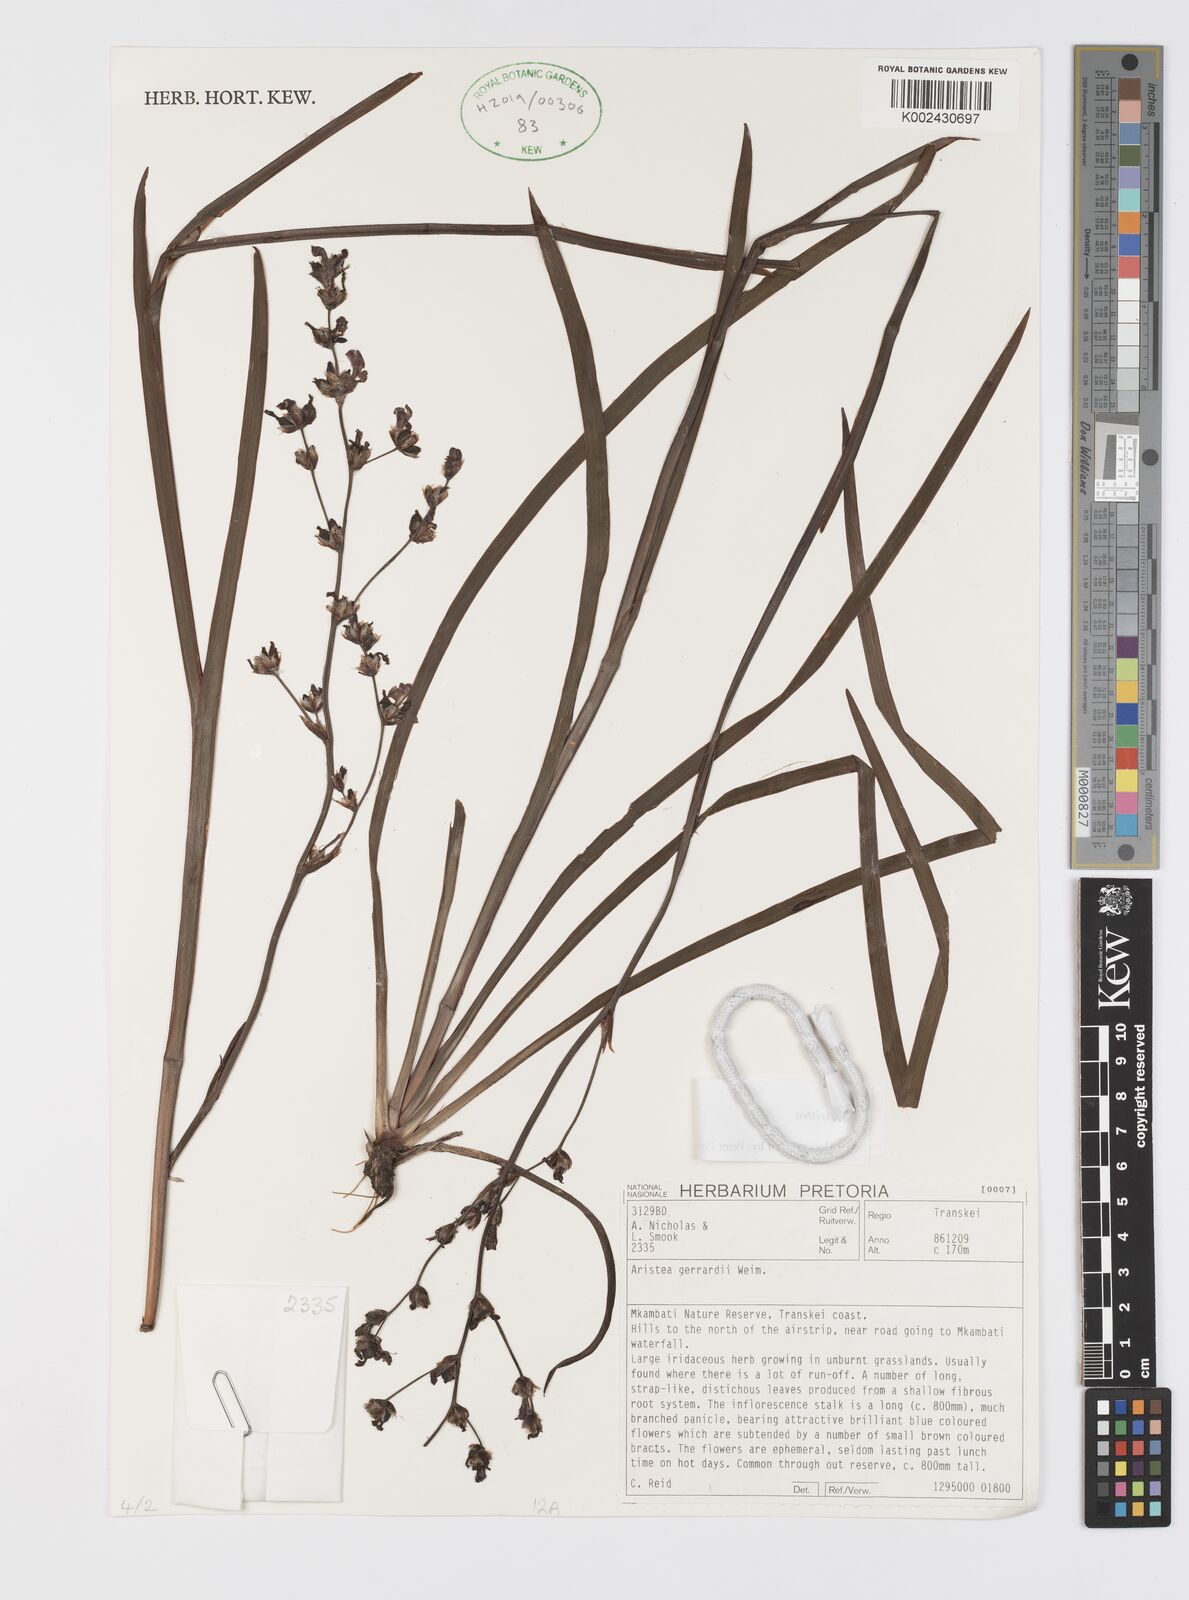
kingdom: Plantae
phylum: Tracheophyta
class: Liliopsida
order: Asparagales
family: Iridaceae
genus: Aristea
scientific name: Aristea compressa
